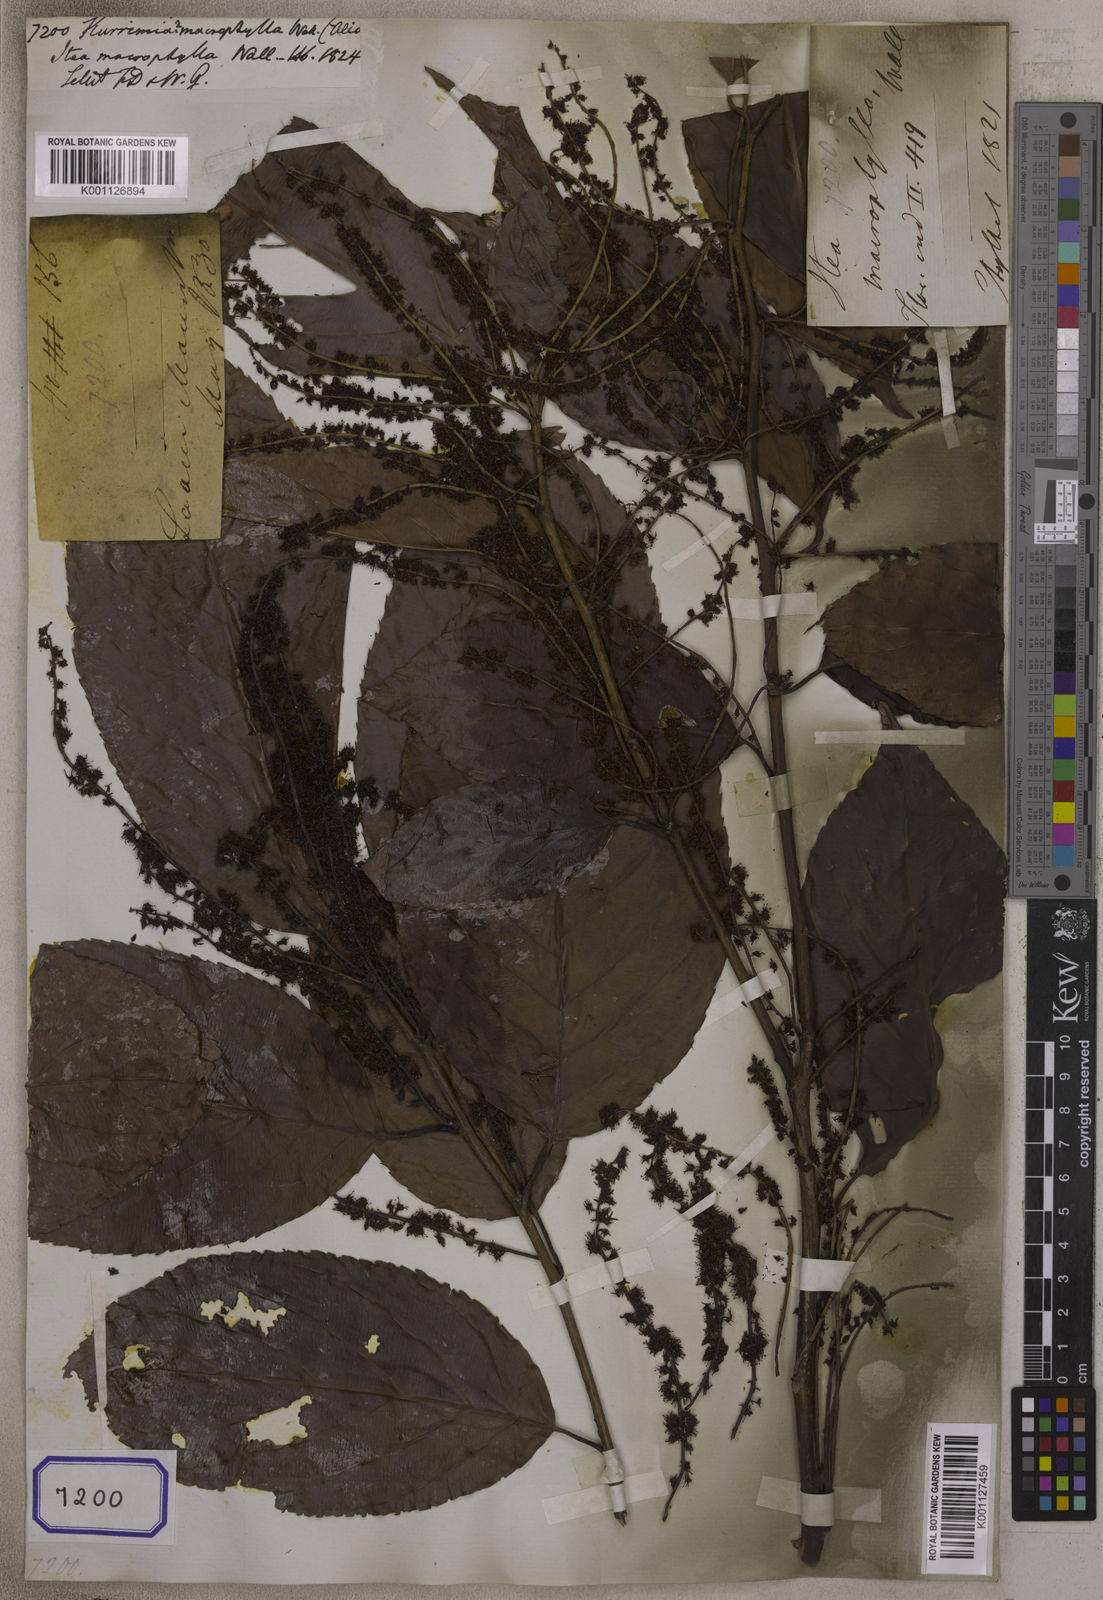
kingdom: Plantae
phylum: Tracheophyta
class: Magnoliopsida
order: Escalloniales
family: Escalloniaceae
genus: Kurrimia
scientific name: Kurrimia
